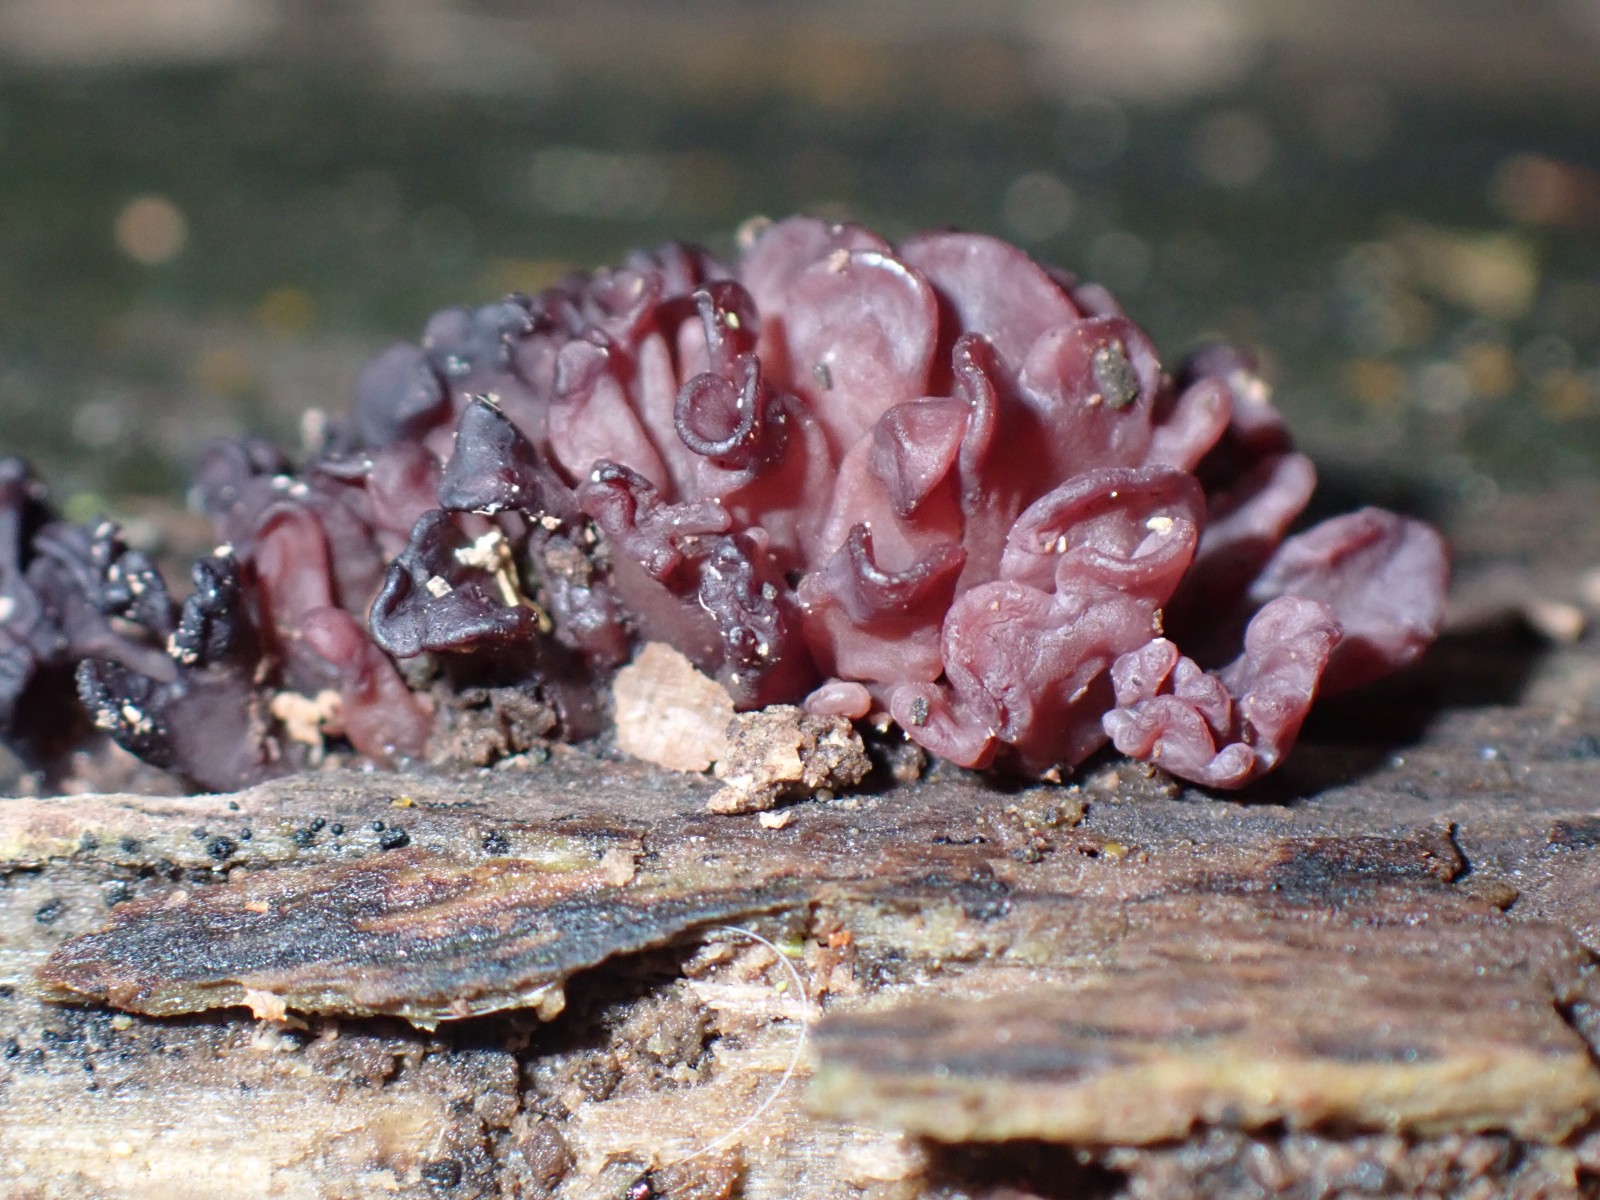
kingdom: Fungi
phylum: Ascomycota
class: Leotiomycetes
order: Helotiales
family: Gelatinodiscaceae
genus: Ascocoryne
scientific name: Ascocoryne sarcoides
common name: rødlilla sejskive
